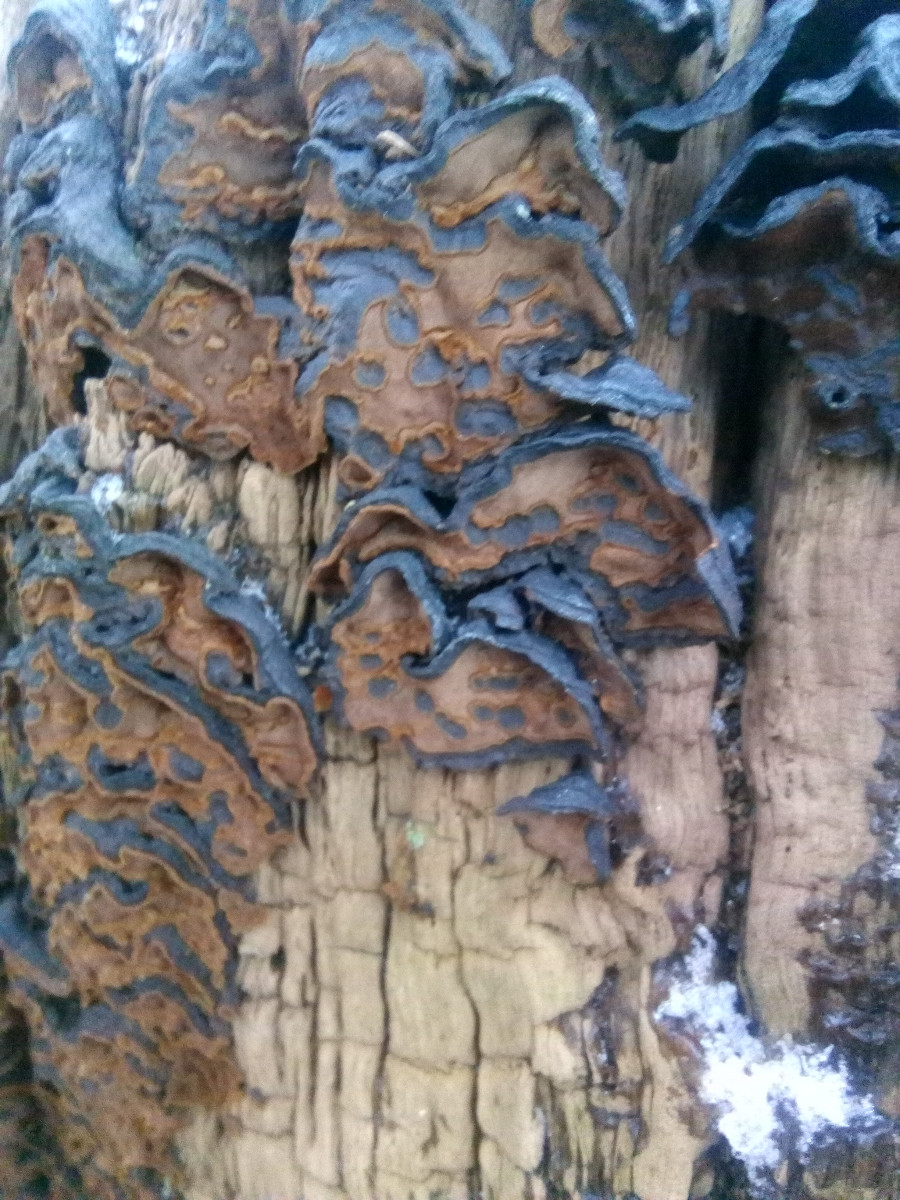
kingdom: Fungi
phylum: Basidiomycota
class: Agaricomycetes
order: Hymenochaetales
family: Hymenochaetaceae
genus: Hymenochaete
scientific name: Hymenochaete rubiginosa
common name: stiv ruslædersvamp
